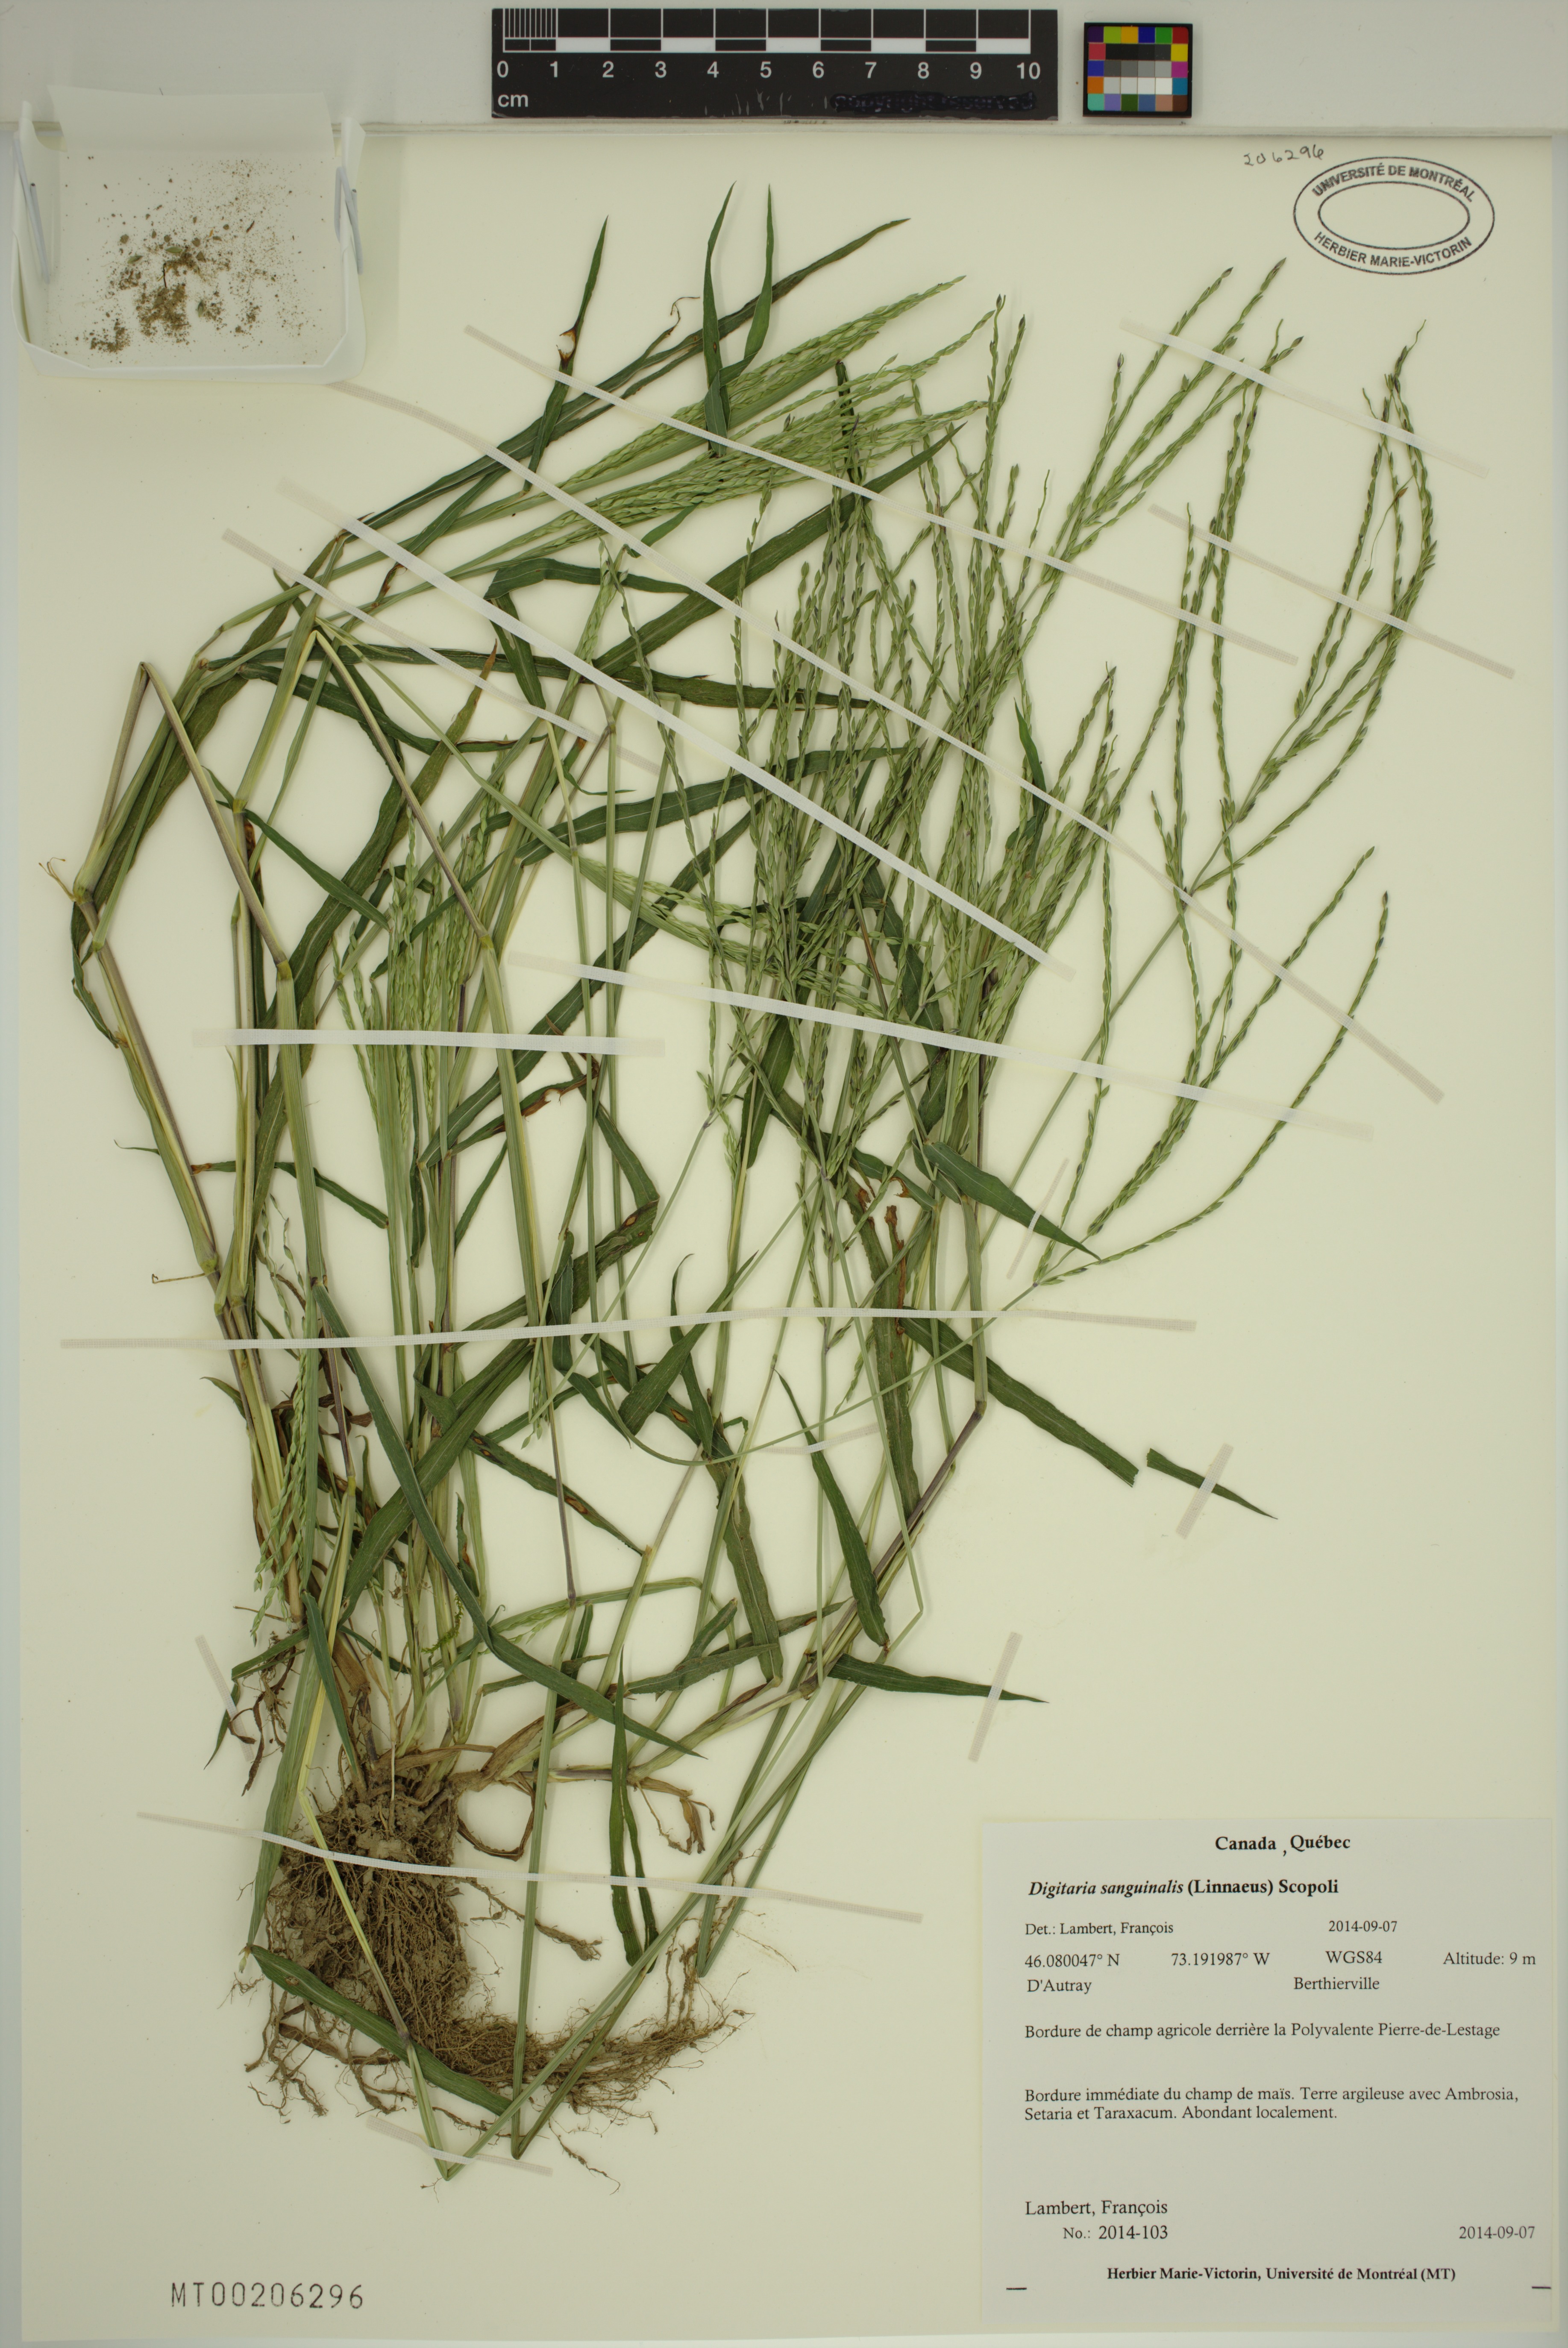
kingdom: Plantae
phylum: Tracheophyta
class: Liliopsida
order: Poales
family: Poaceae
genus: Digitaria
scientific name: Digitaria sanguinalis
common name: Hairy crabgrass
